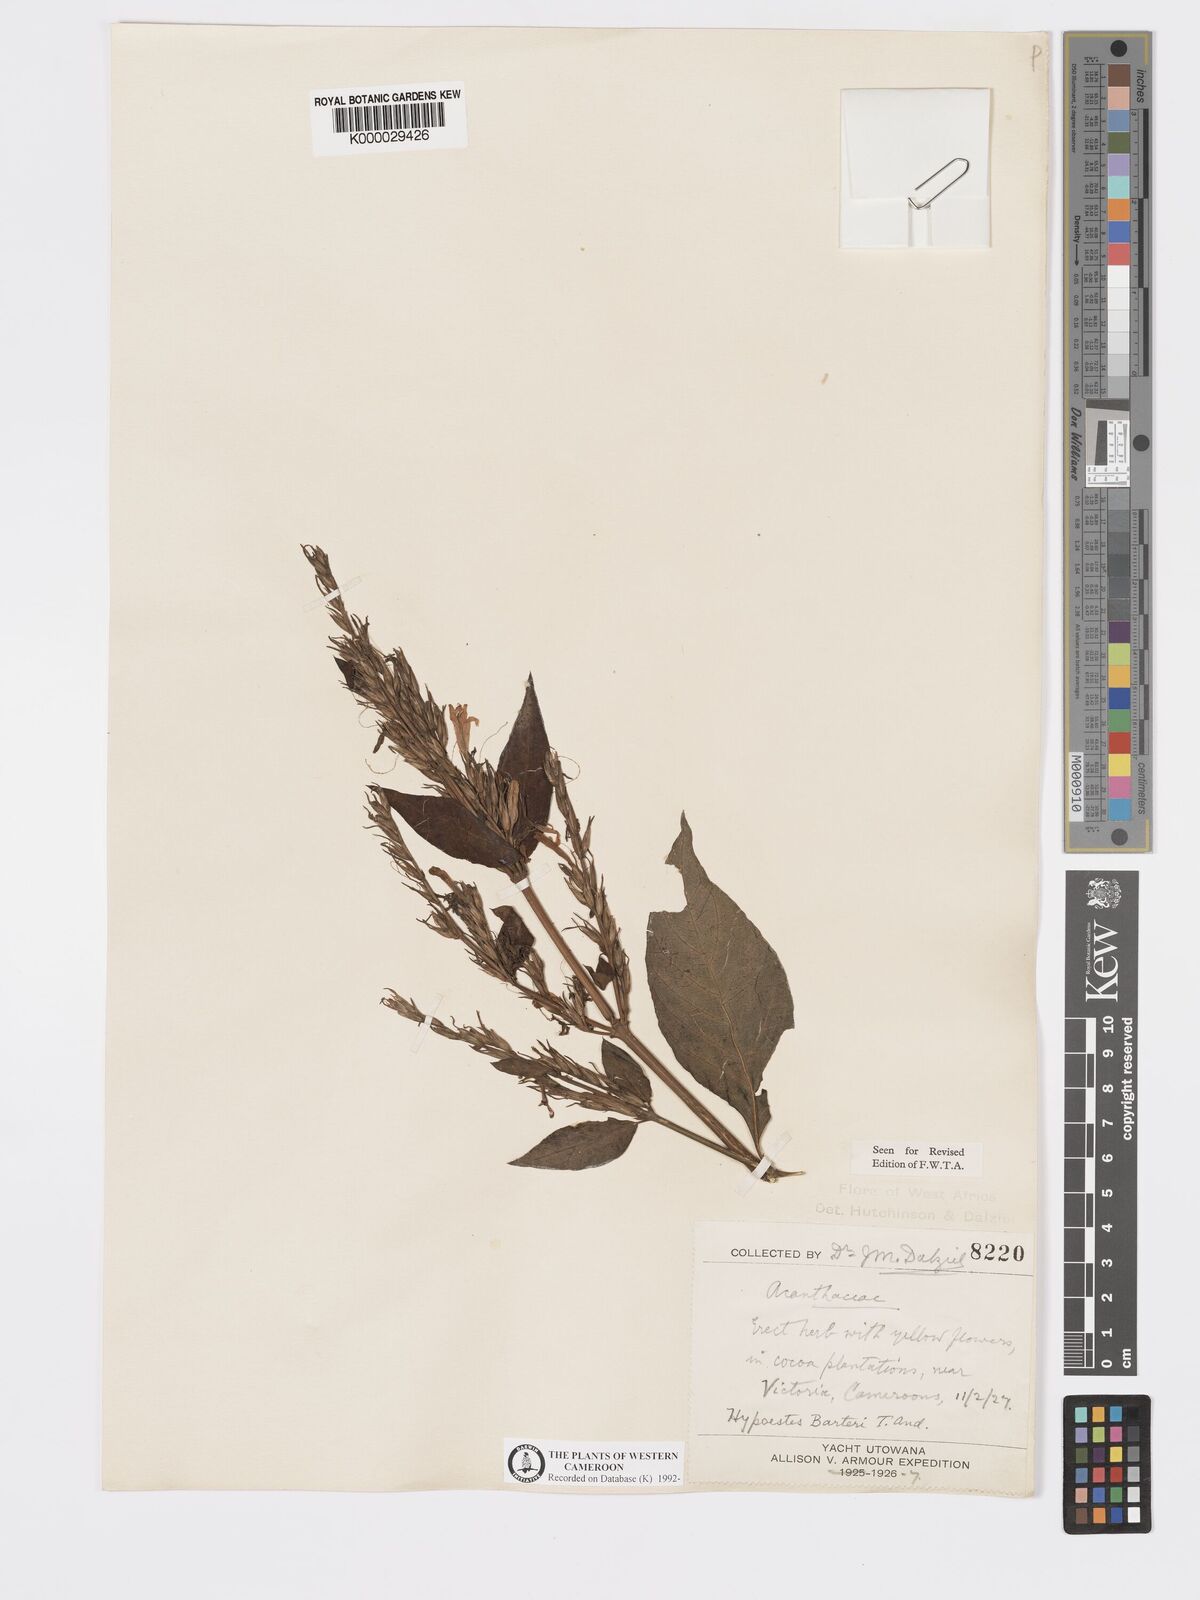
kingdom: Plantae
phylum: Tracheophyta
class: Magnoliopsida
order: Lamiales
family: Acanthaceae
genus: Hypoestes
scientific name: Hypoestes rosea
